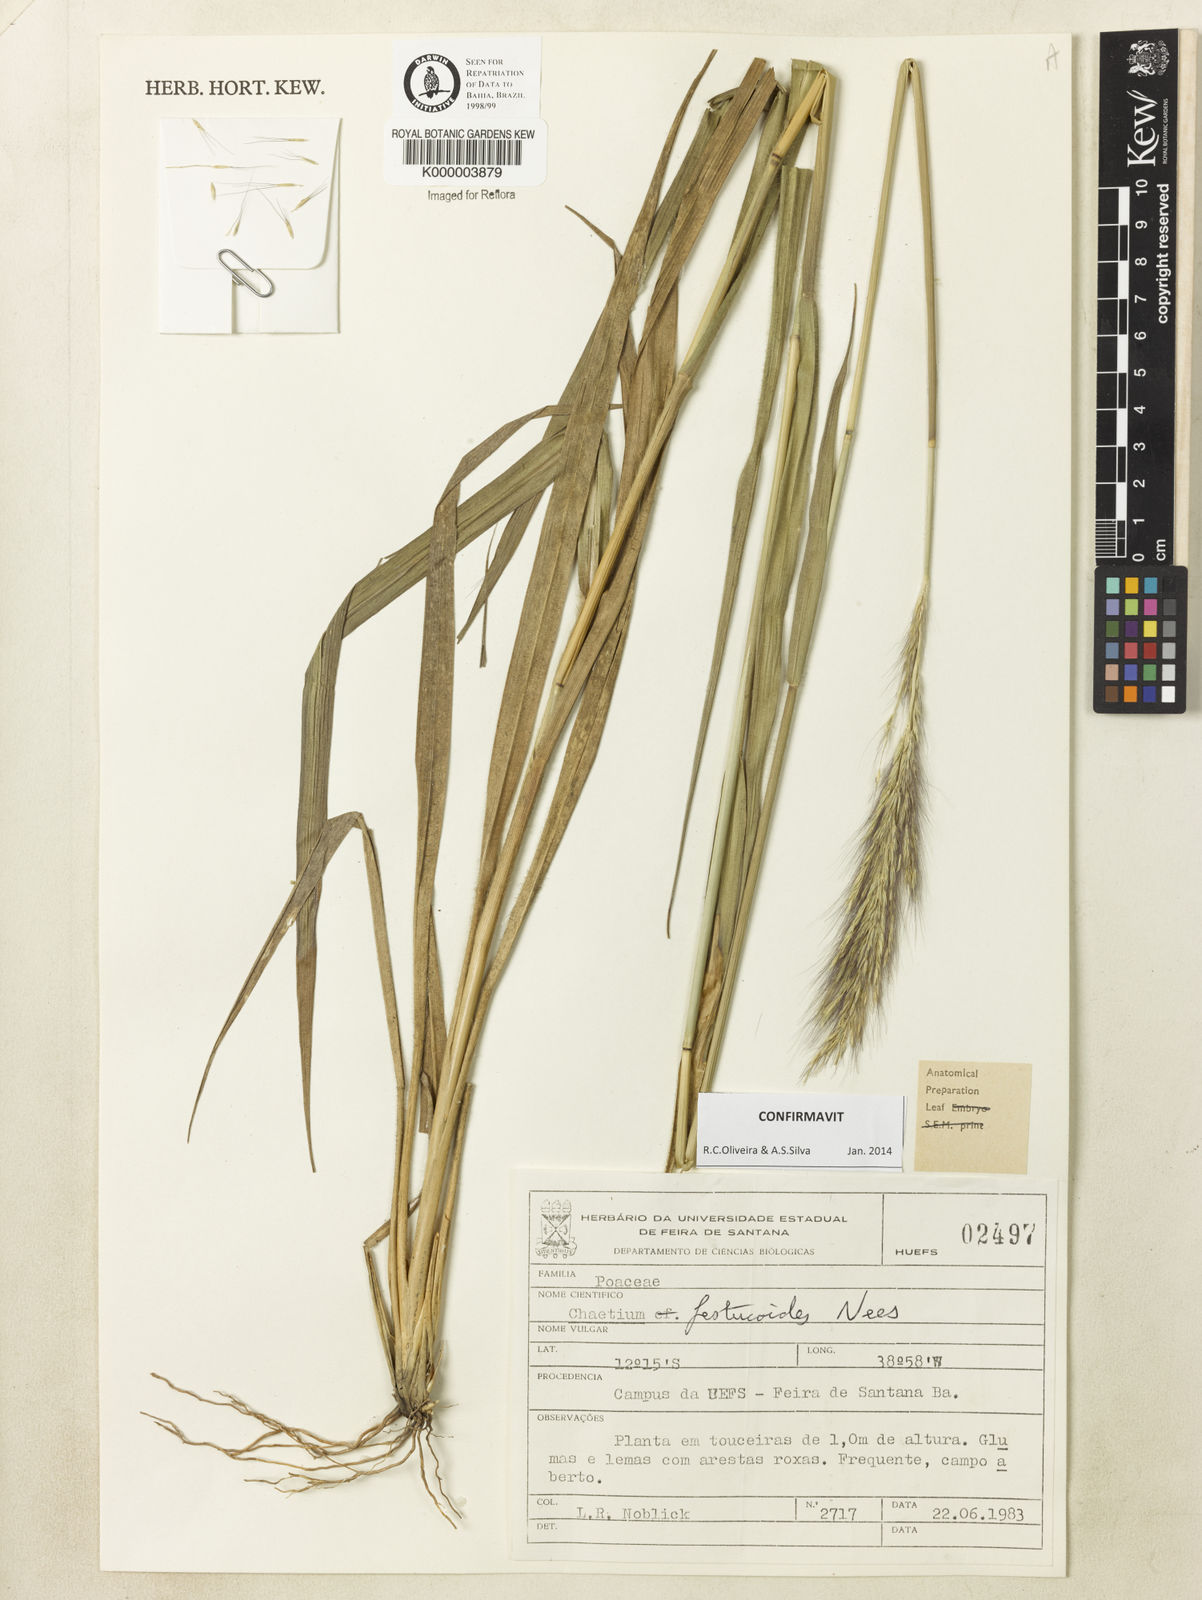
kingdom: Plantae
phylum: Tracheophyta
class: Liliopsida
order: Poales
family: Poaceae
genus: Chaetium
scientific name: Chaetium festucoides
